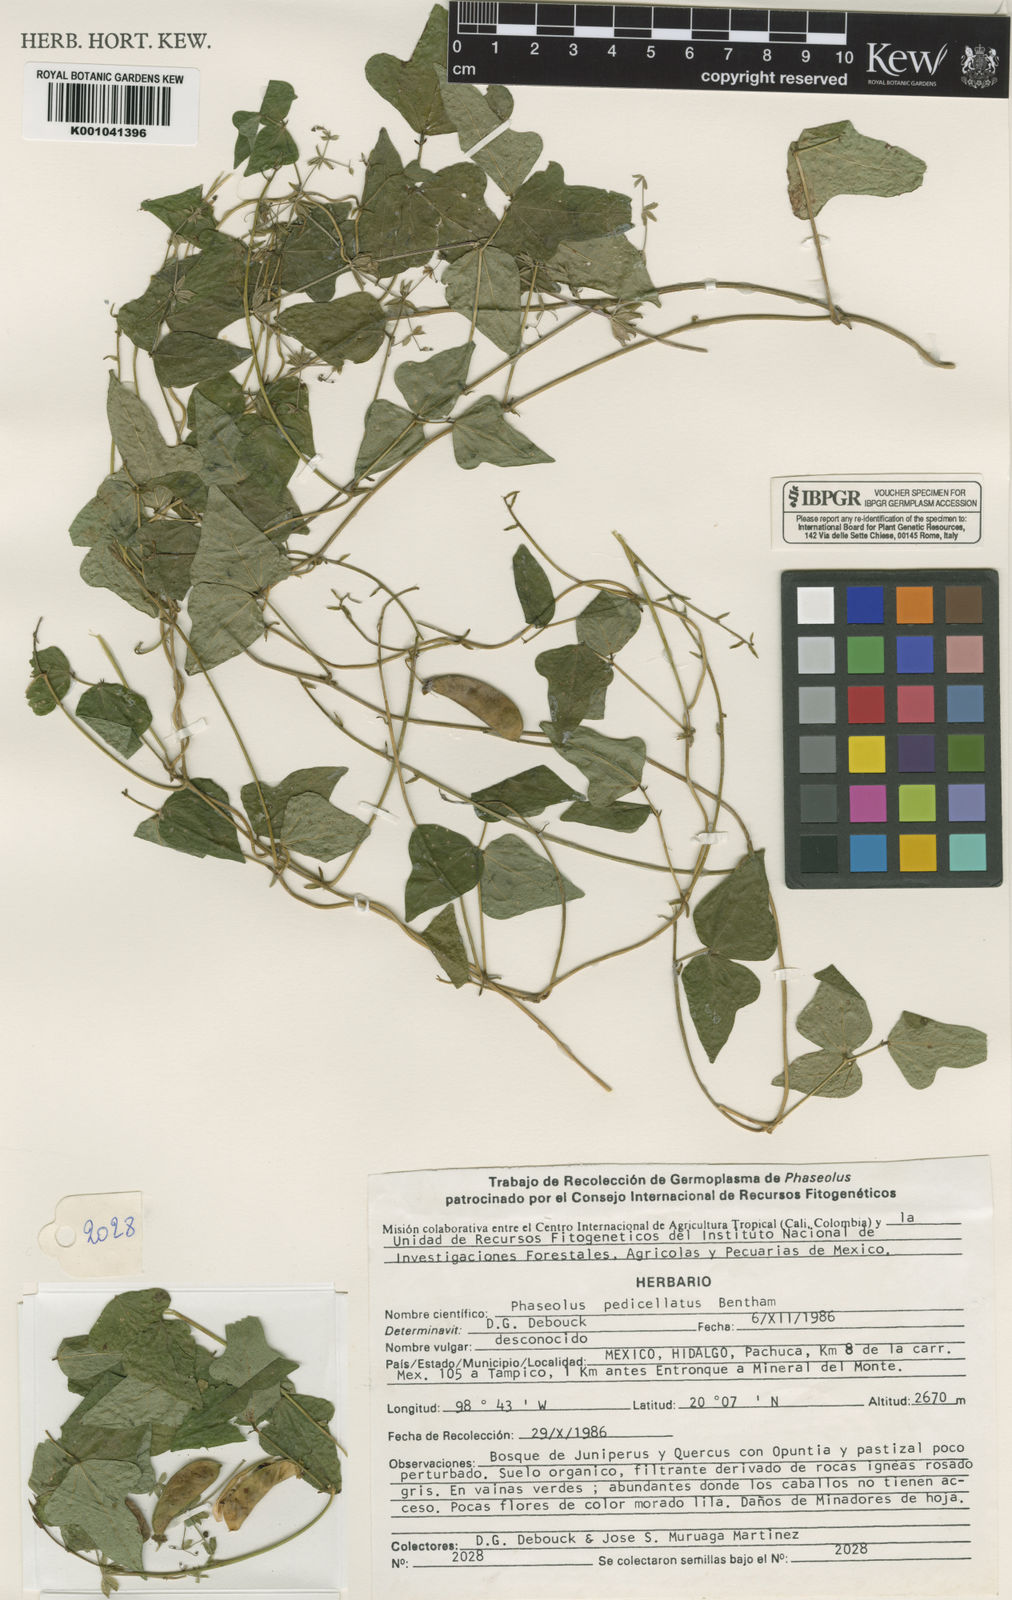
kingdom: Plantae
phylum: Tracheophyta
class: Magnoliopsida
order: Fabales
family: Fabaceae
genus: Phaseolus
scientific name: Phaseolus pedicellatus
